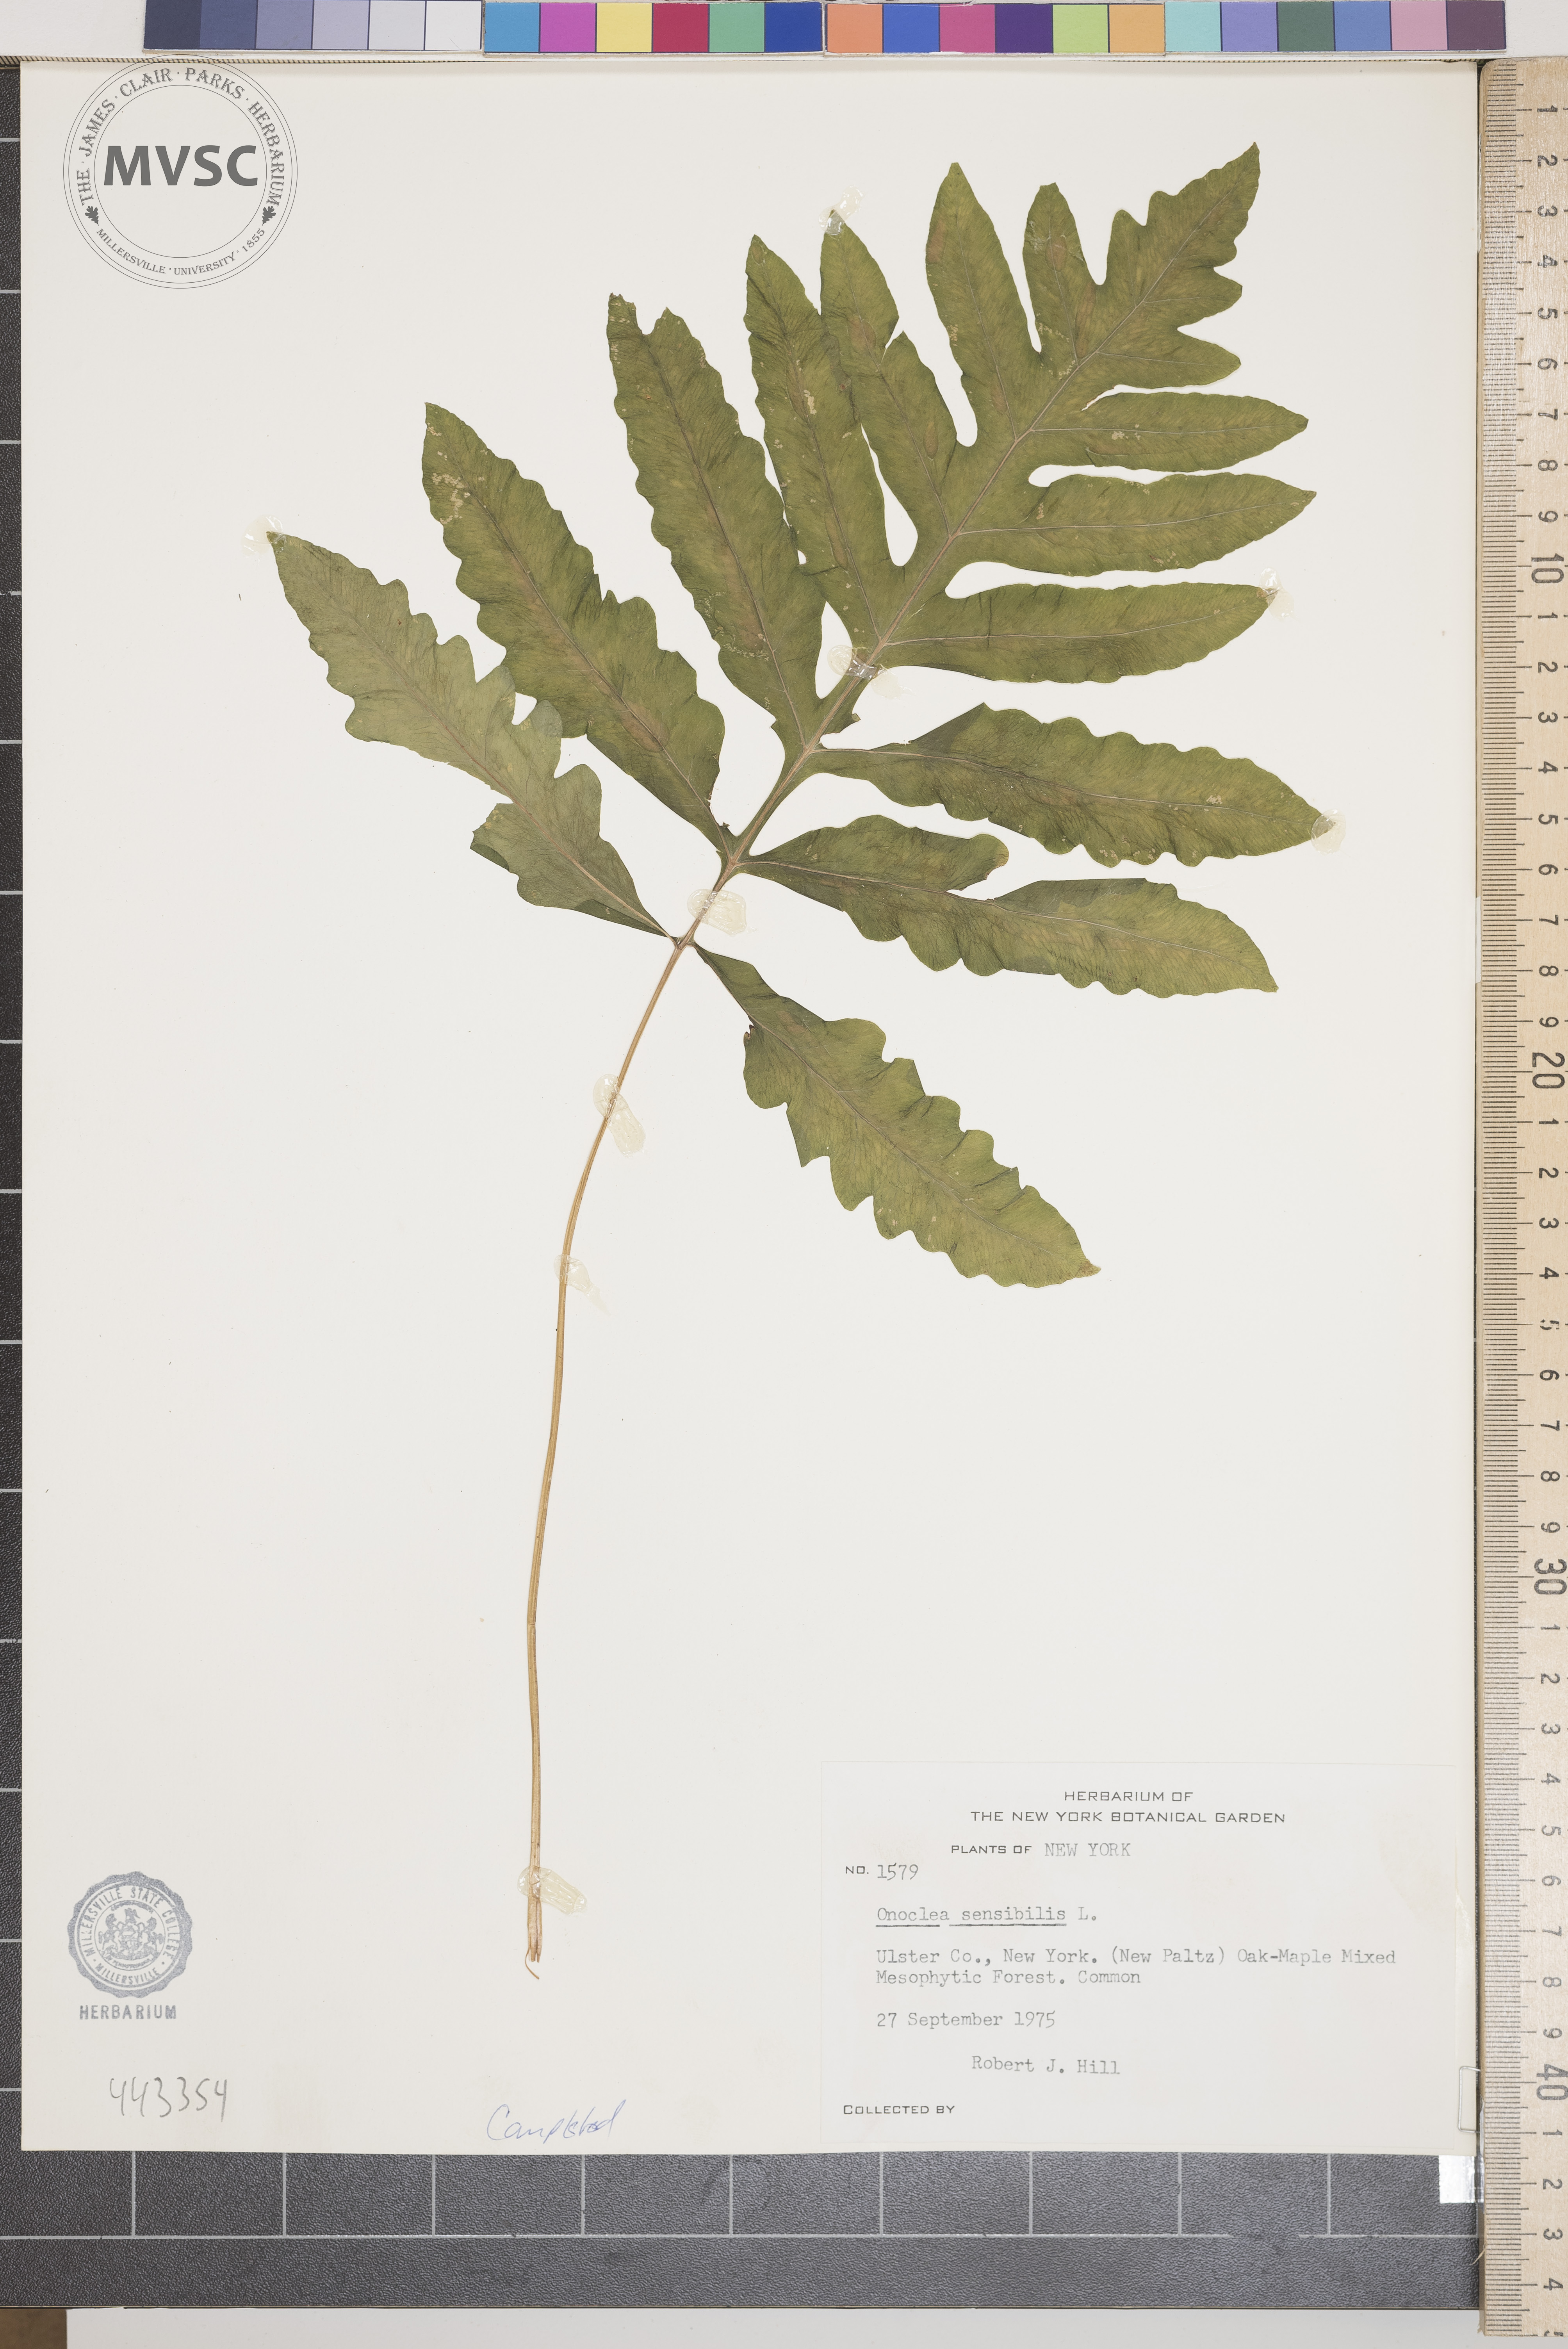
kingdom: Plantae
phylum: Tracheophyta
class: Polypodiopsida
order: Polypodiales
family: Onocleaceae
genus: Onoclea
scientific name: Onoclea sensibilis
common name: Sensitive fern
